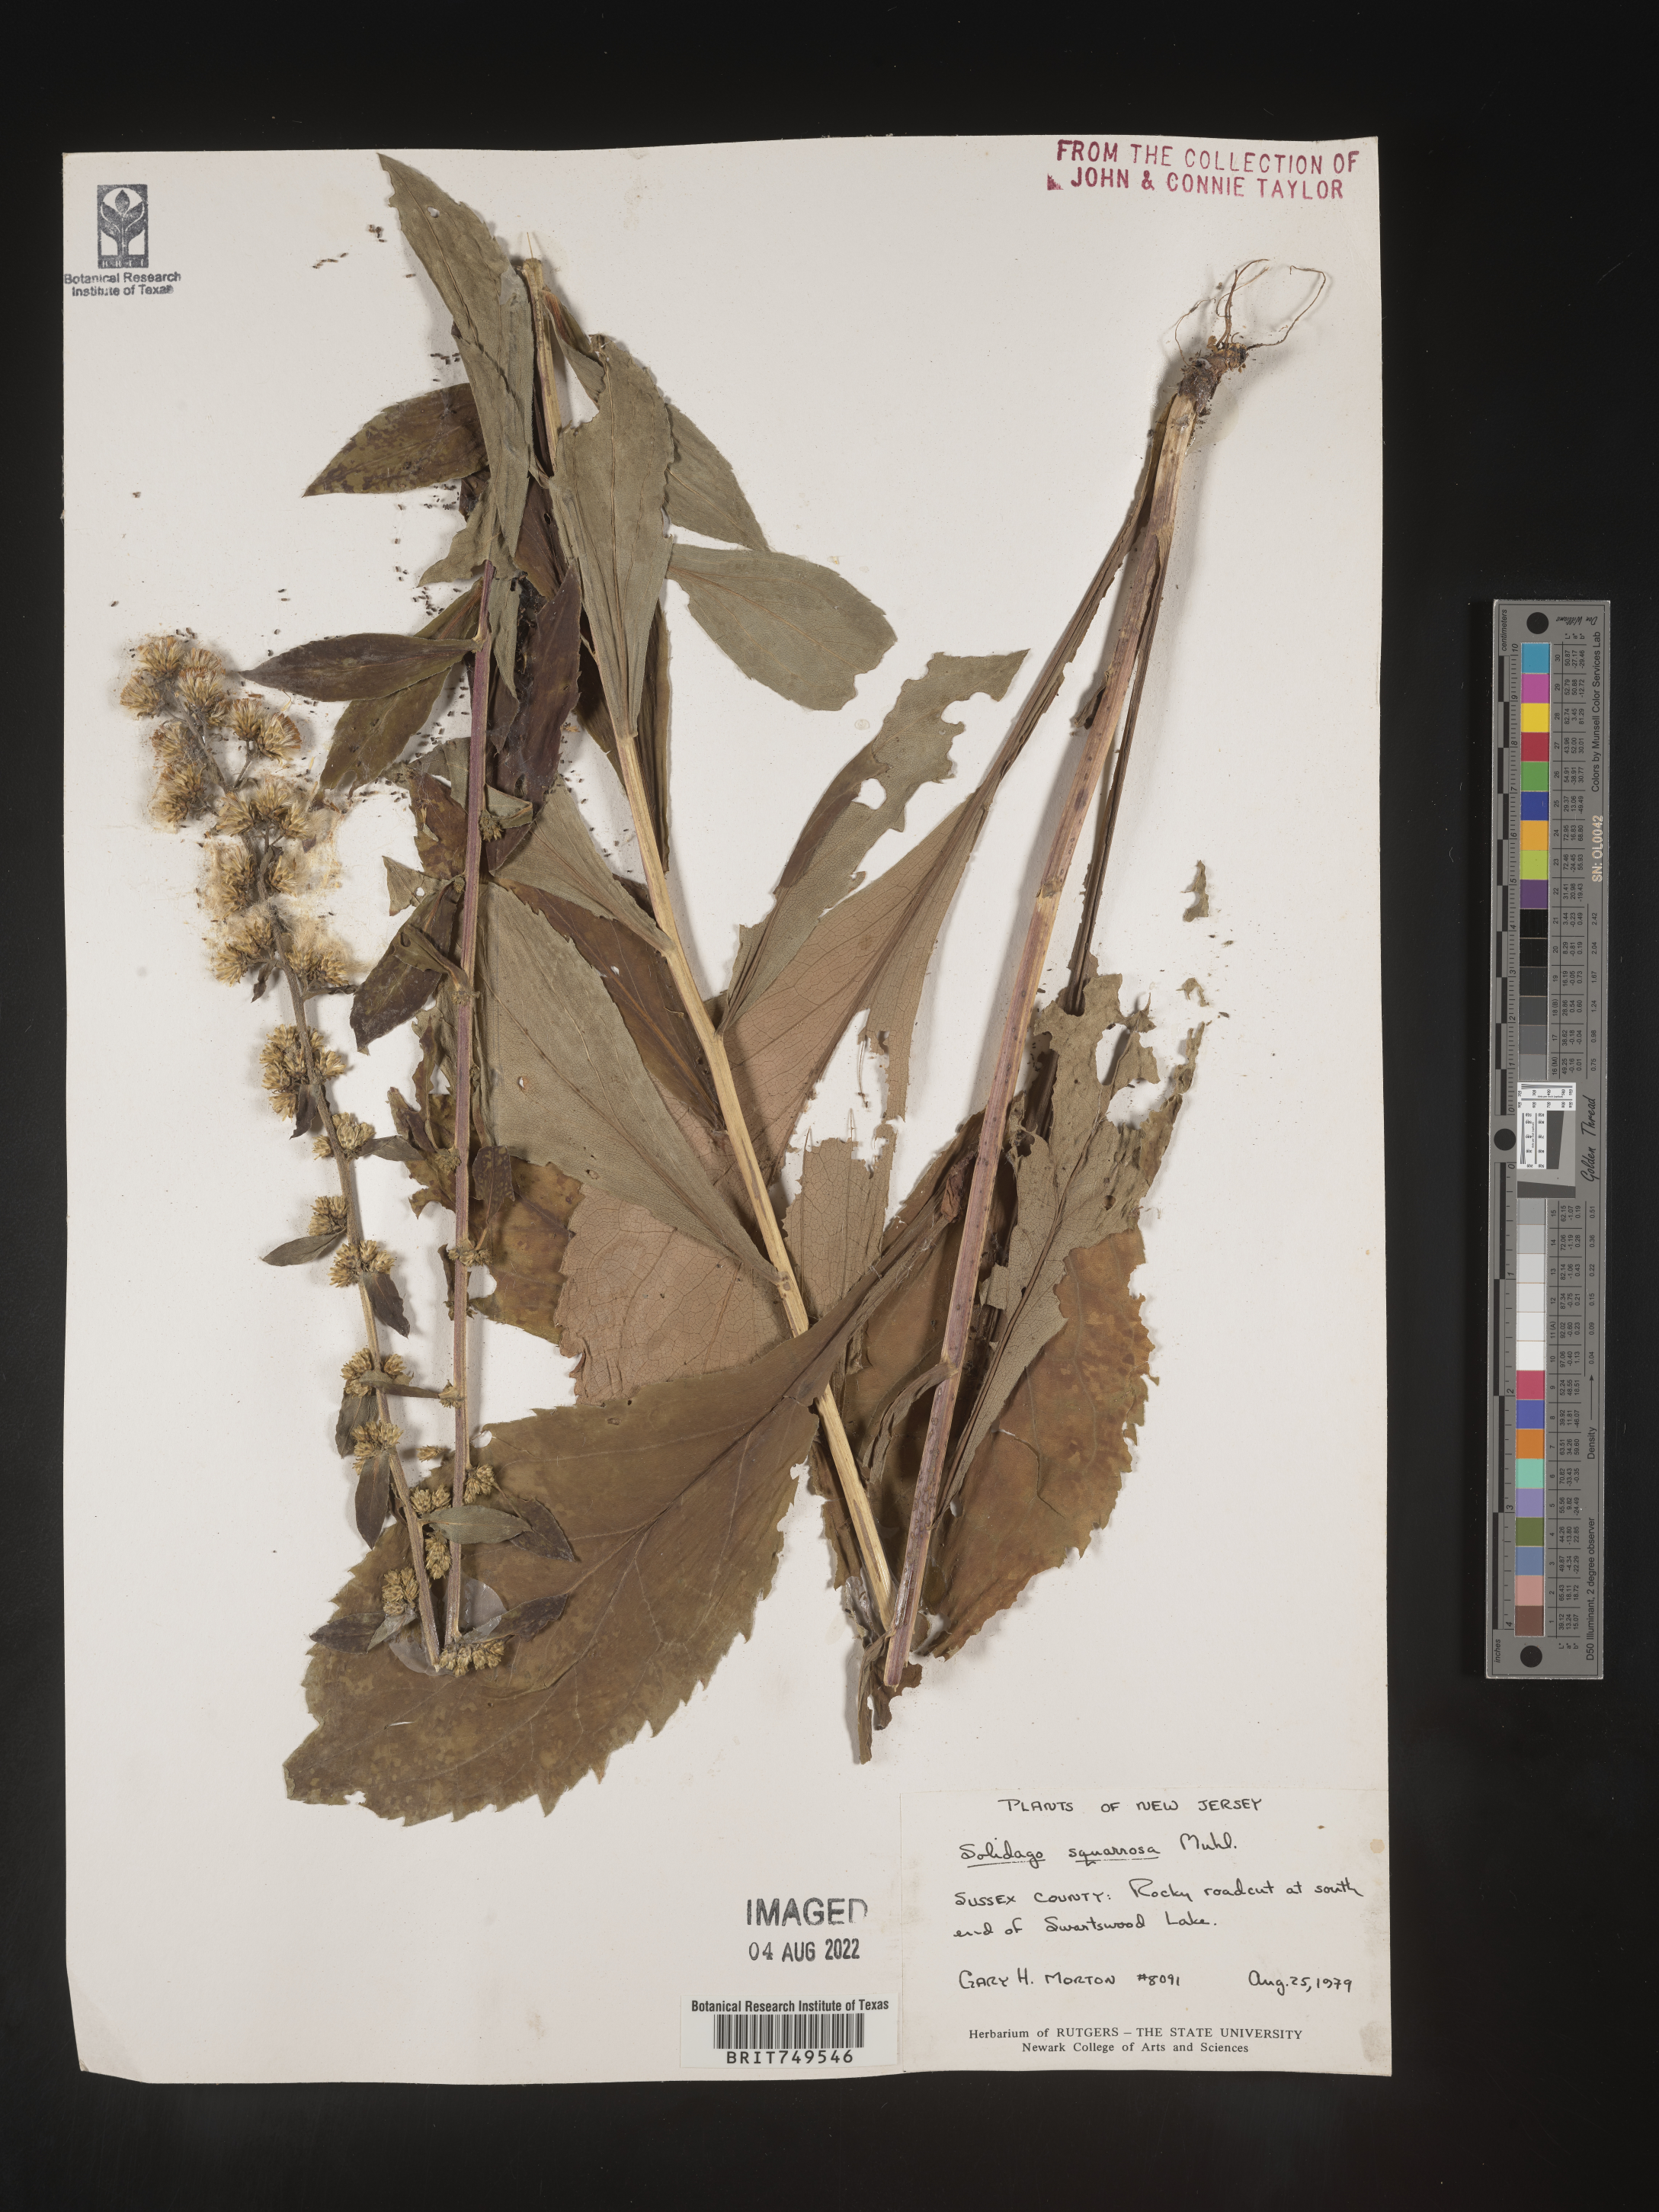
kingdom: Plantae
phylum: Tracheophyta
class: Magnoliopsida
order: Asterales
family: Asteraceae
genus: Solidago
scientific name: Solidago squarrosa
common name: Stout goldenrod
